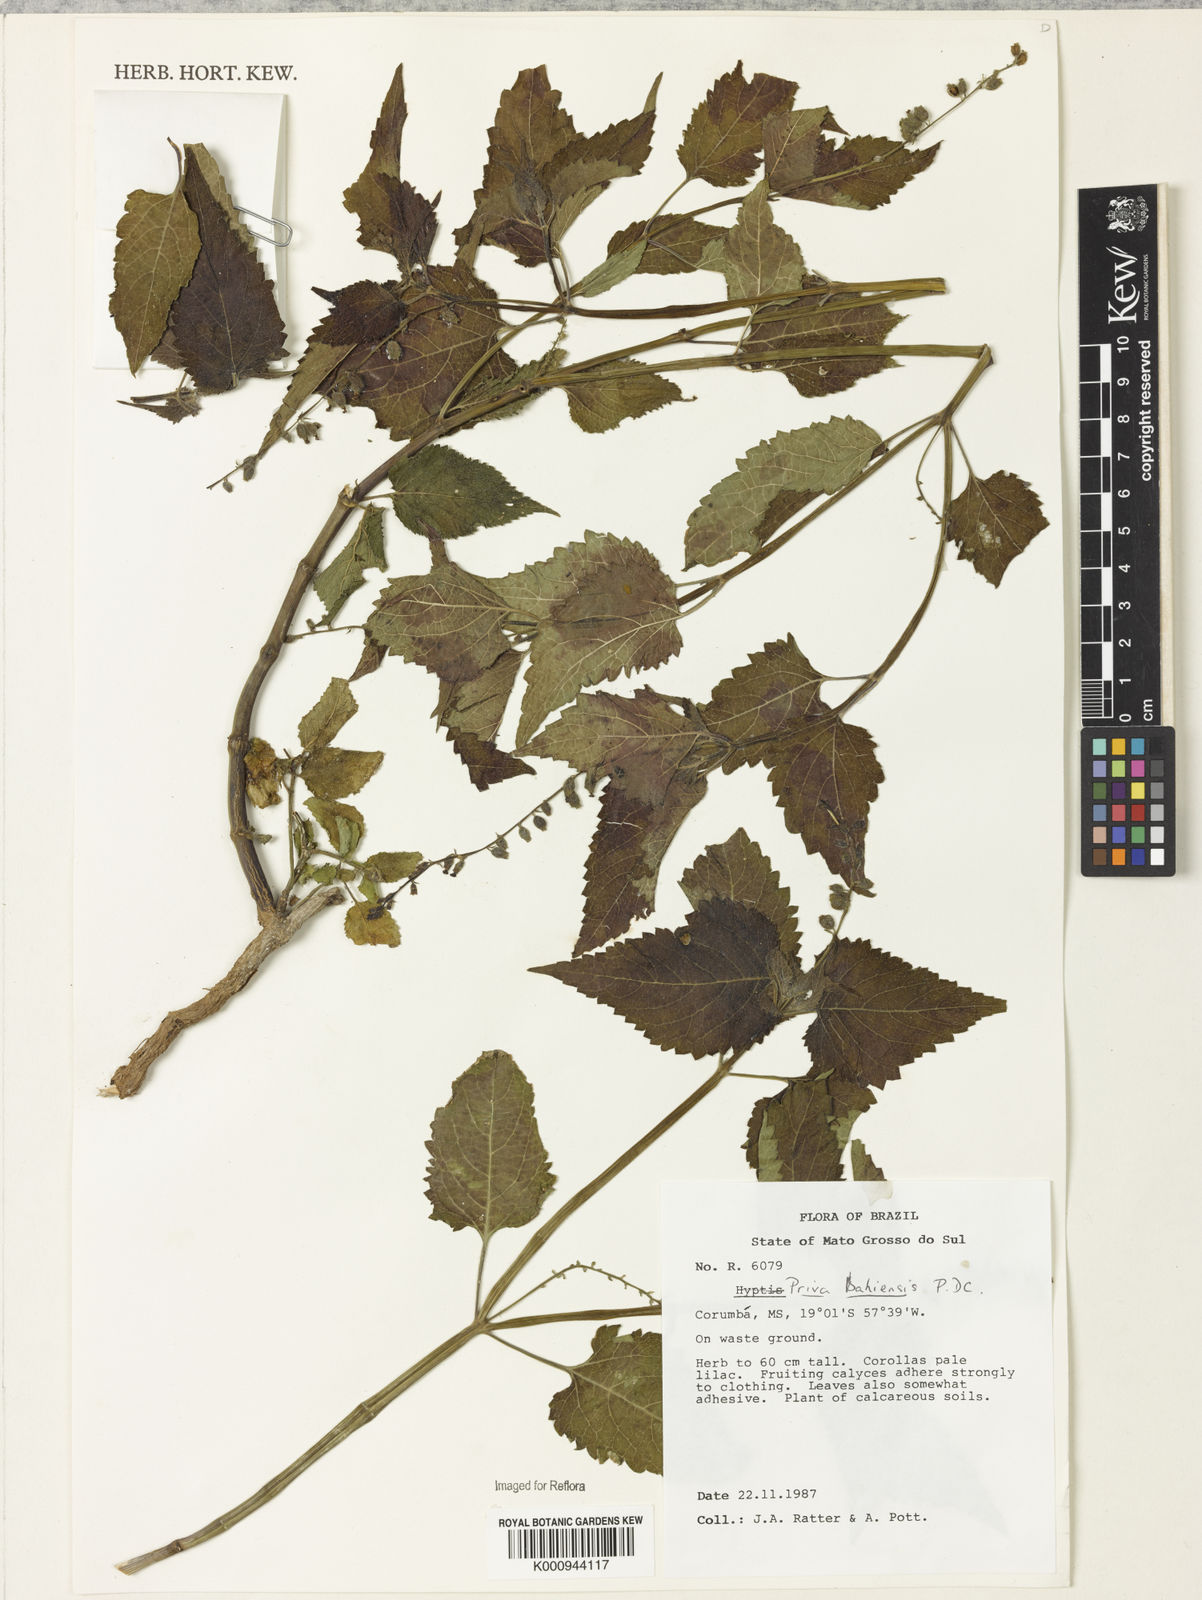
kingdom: Plantae
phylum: Tracheophyta
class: Magnoliopsida
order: Lamiales
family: Verbenaceae
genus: Priva
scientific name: Priva
